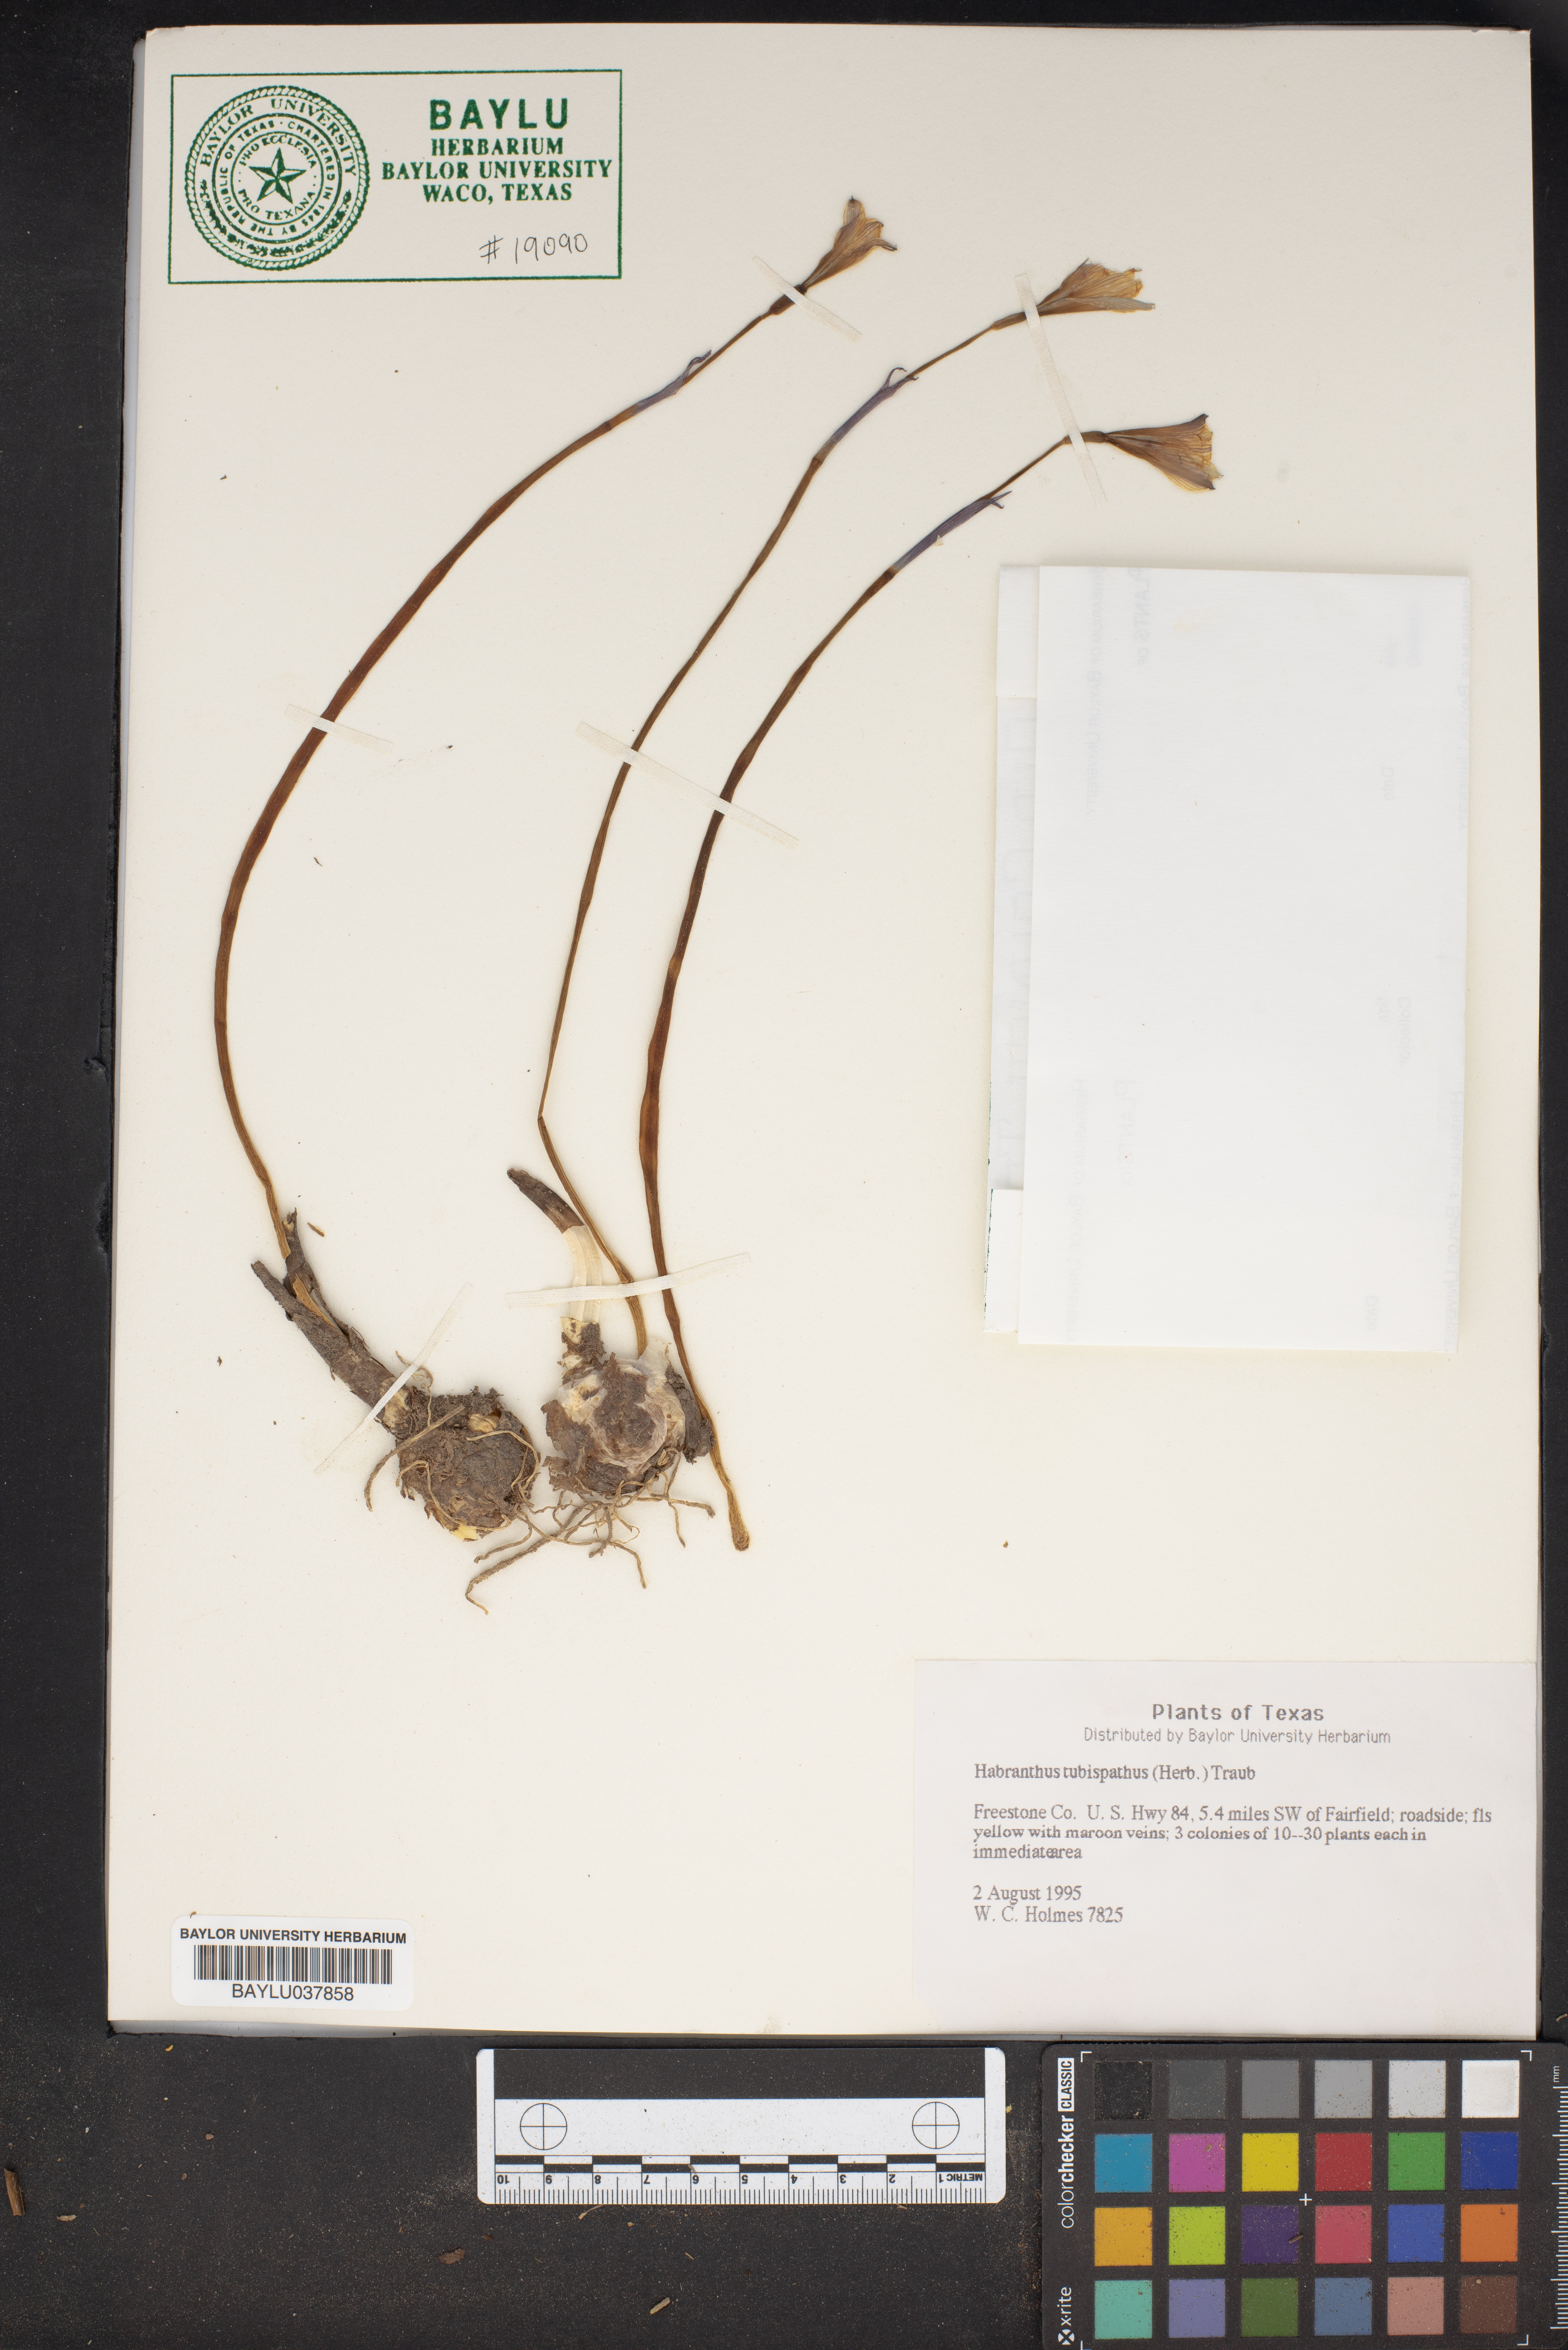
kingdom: Plantae
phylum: Tracheophyta
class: Liliopsida
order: Asparagales
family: Amaryllidaceae
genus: Zephyranthes
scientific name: Zephyranthes tubispatha
